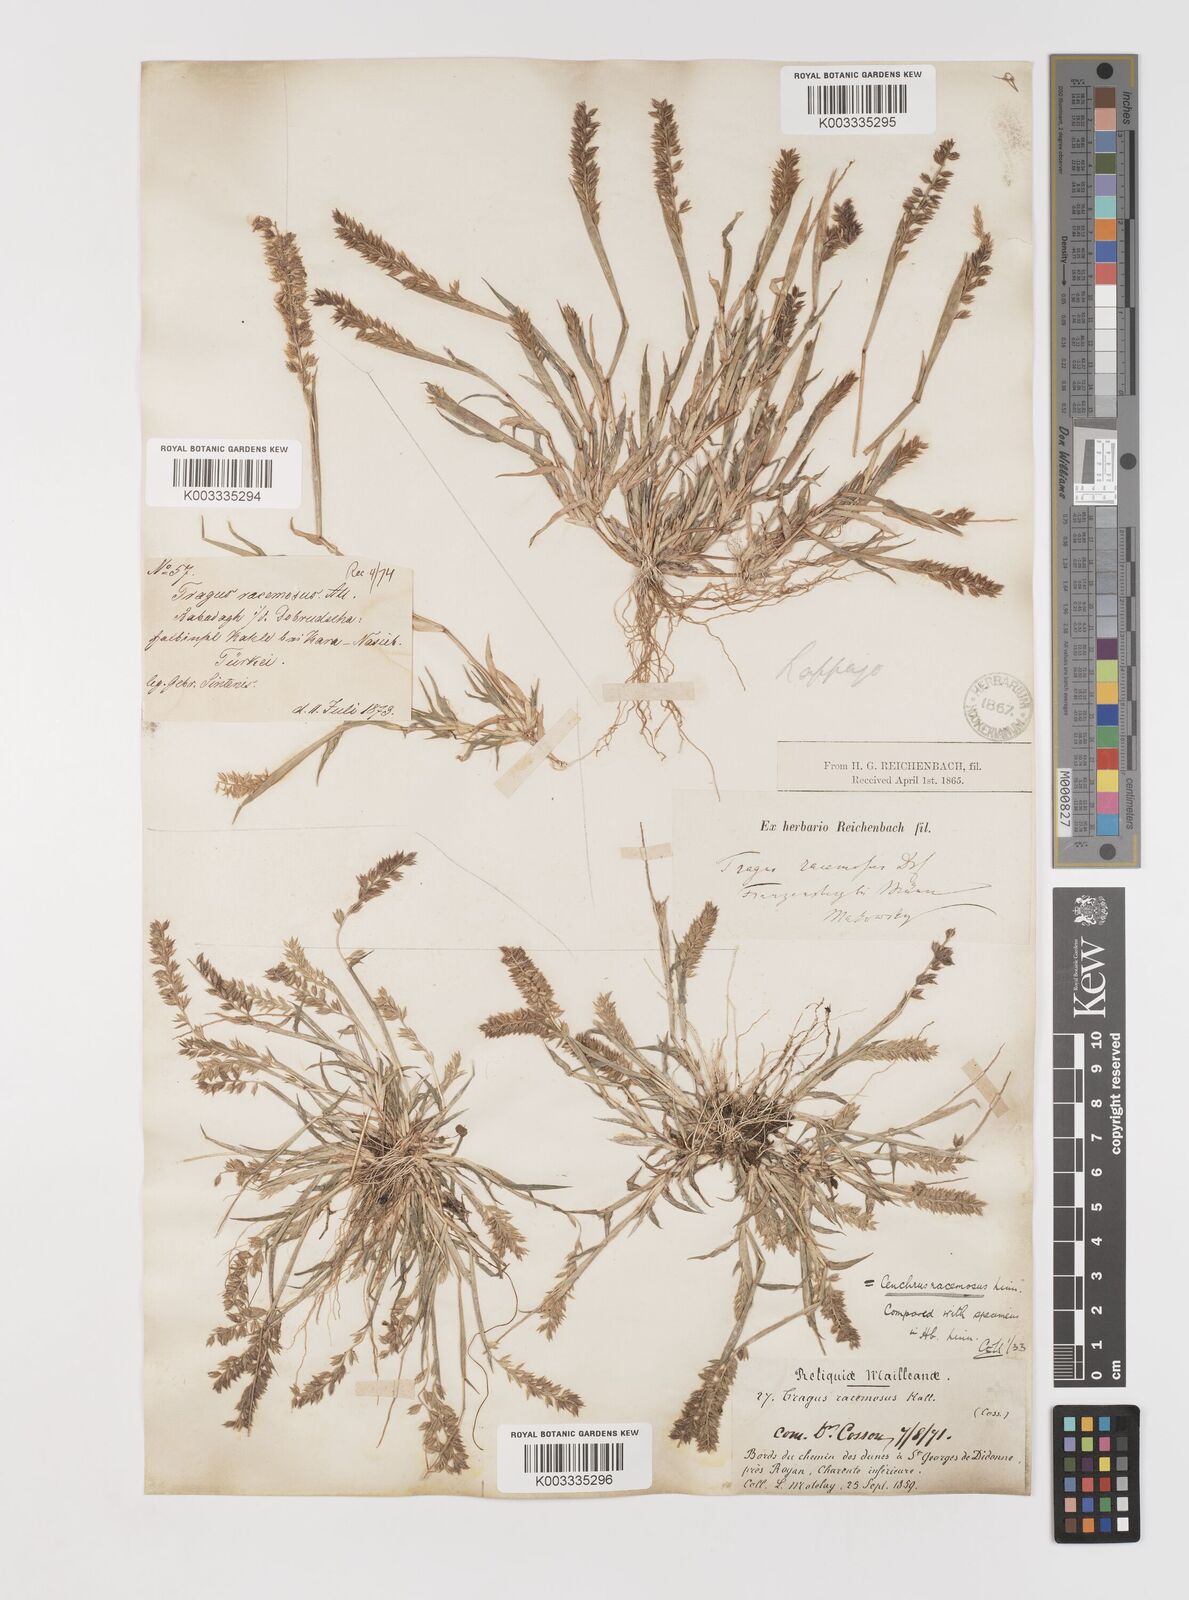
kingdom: Plantae
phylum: Tracheophyta
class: Liliopsida
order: Poales
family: Poaceae
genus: Tragus
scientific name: Tragus racemosus
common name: European bur-grass
